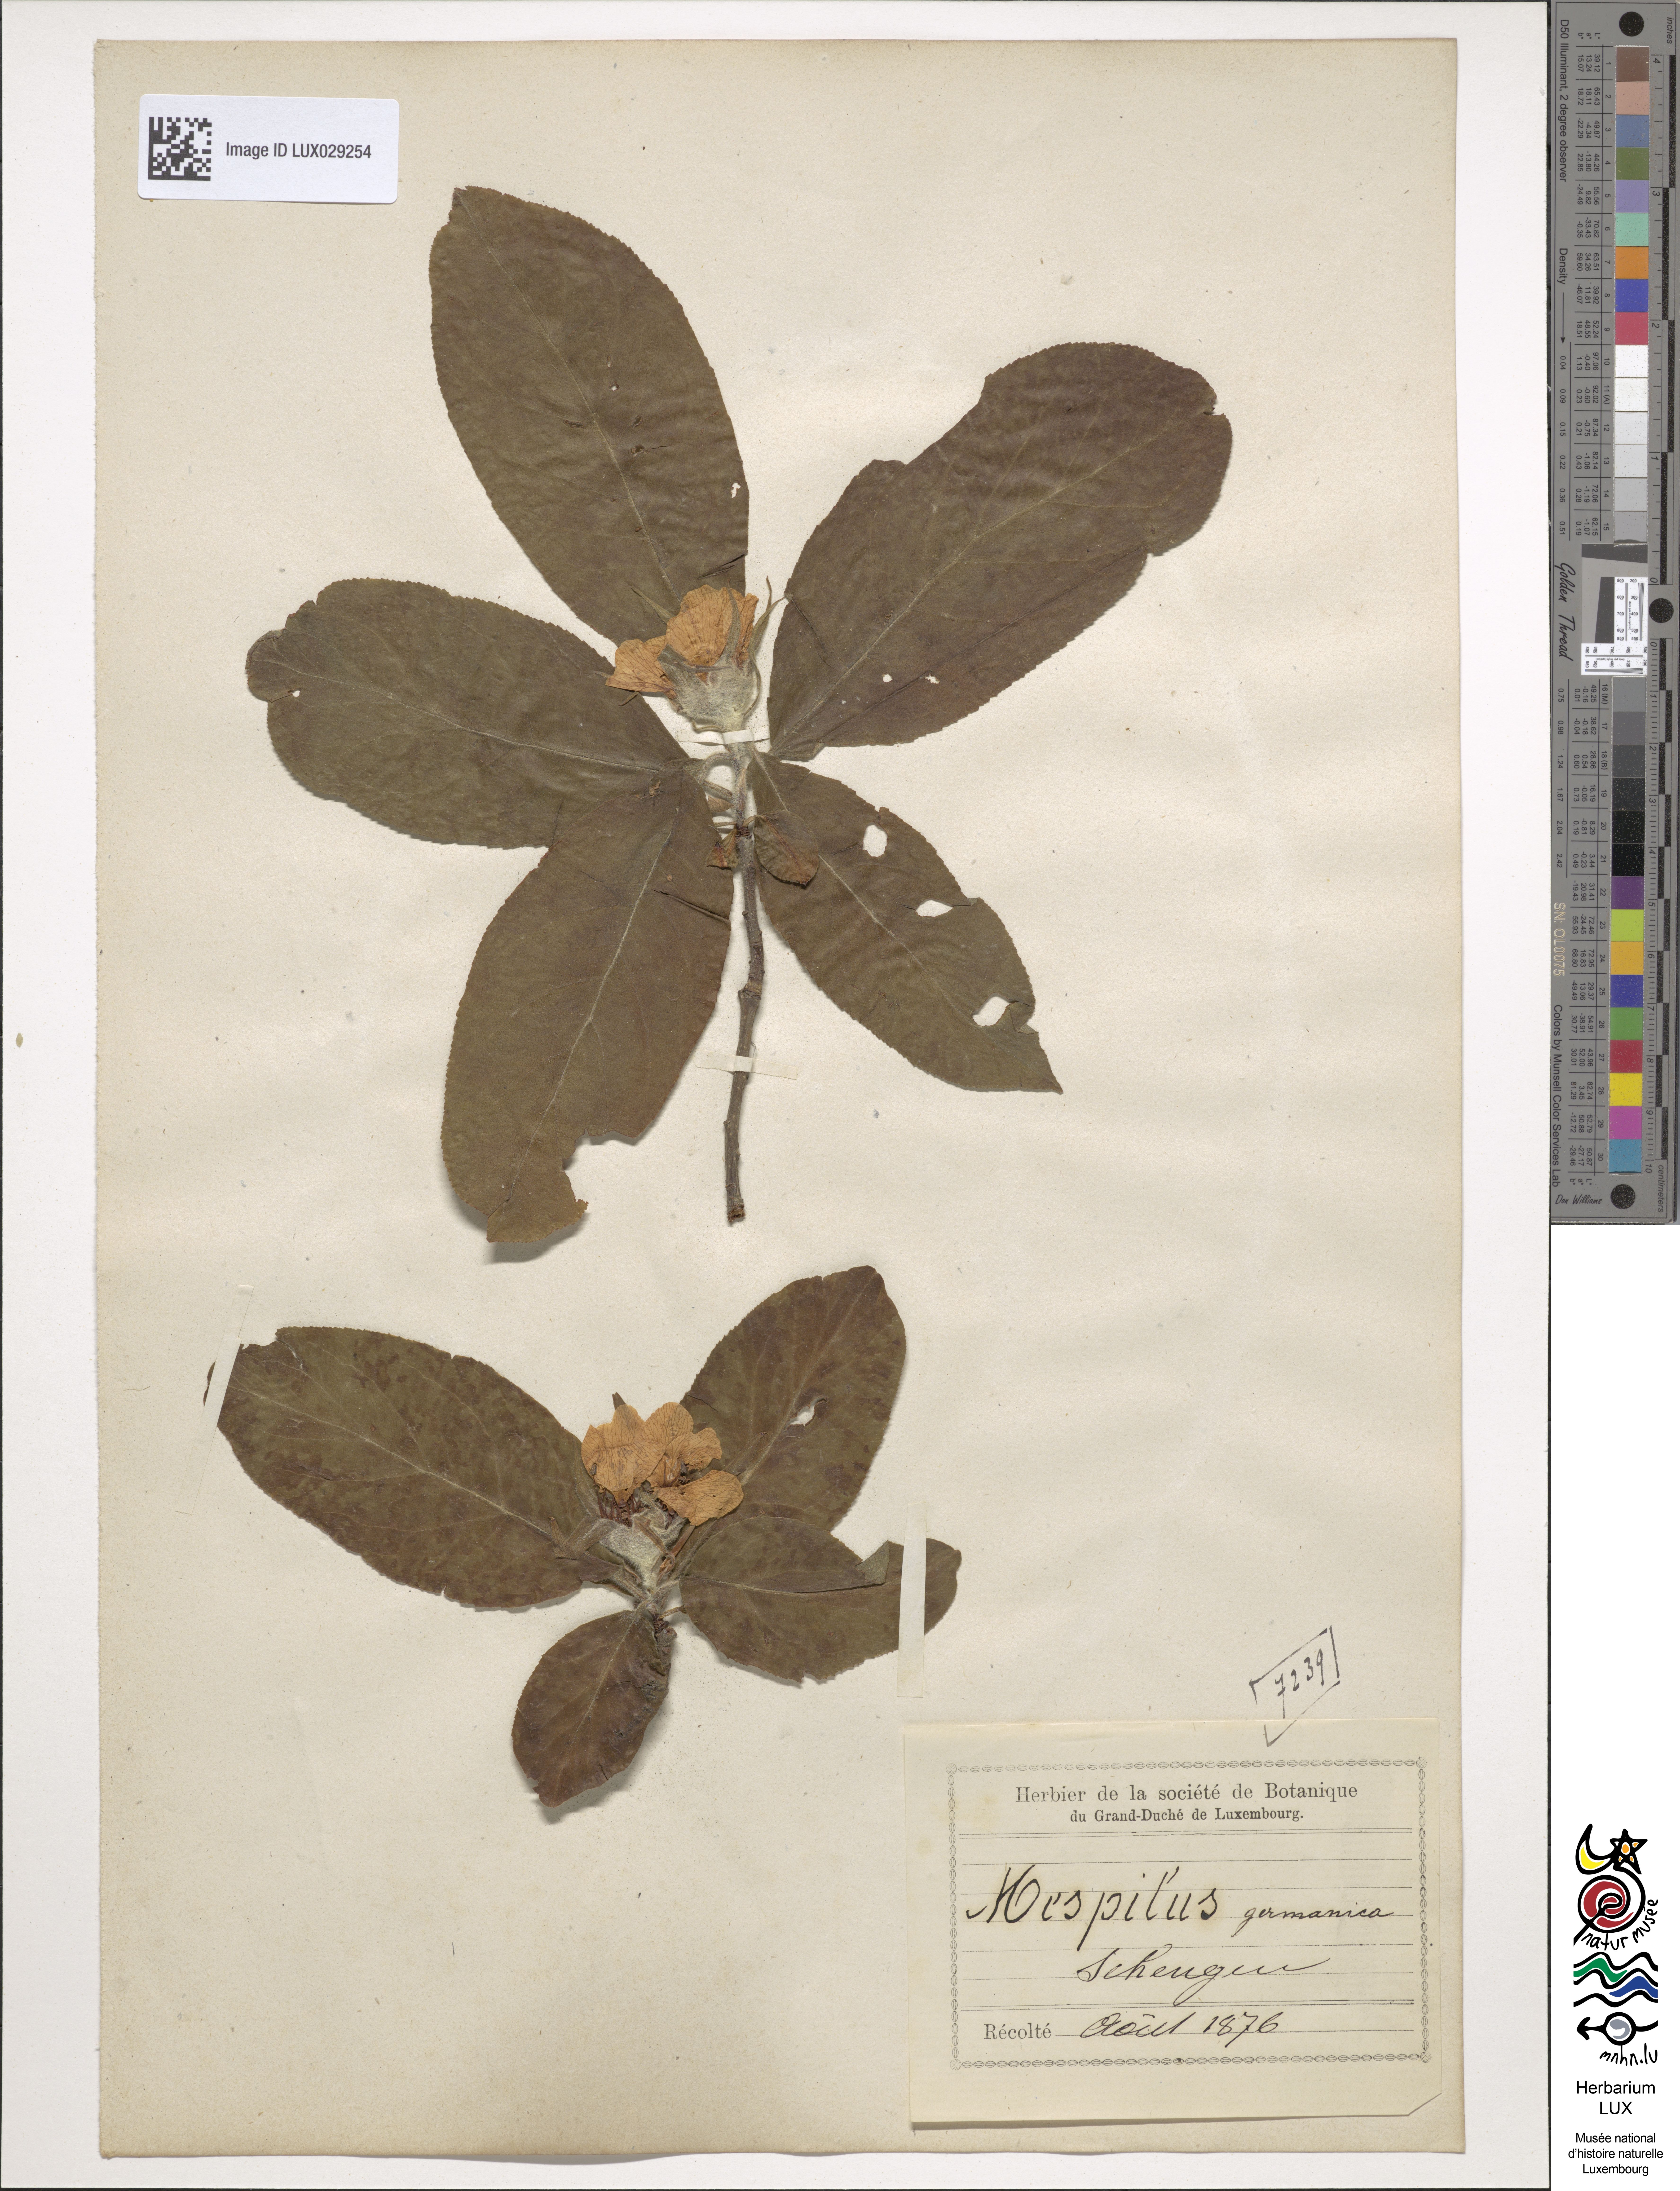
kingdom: Plantae
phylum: Tracheophyta
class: Magnoliopsida
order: Rosales
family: Rosaceae
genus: Mespilus
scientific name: Mespilus germanica
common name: Medlar
